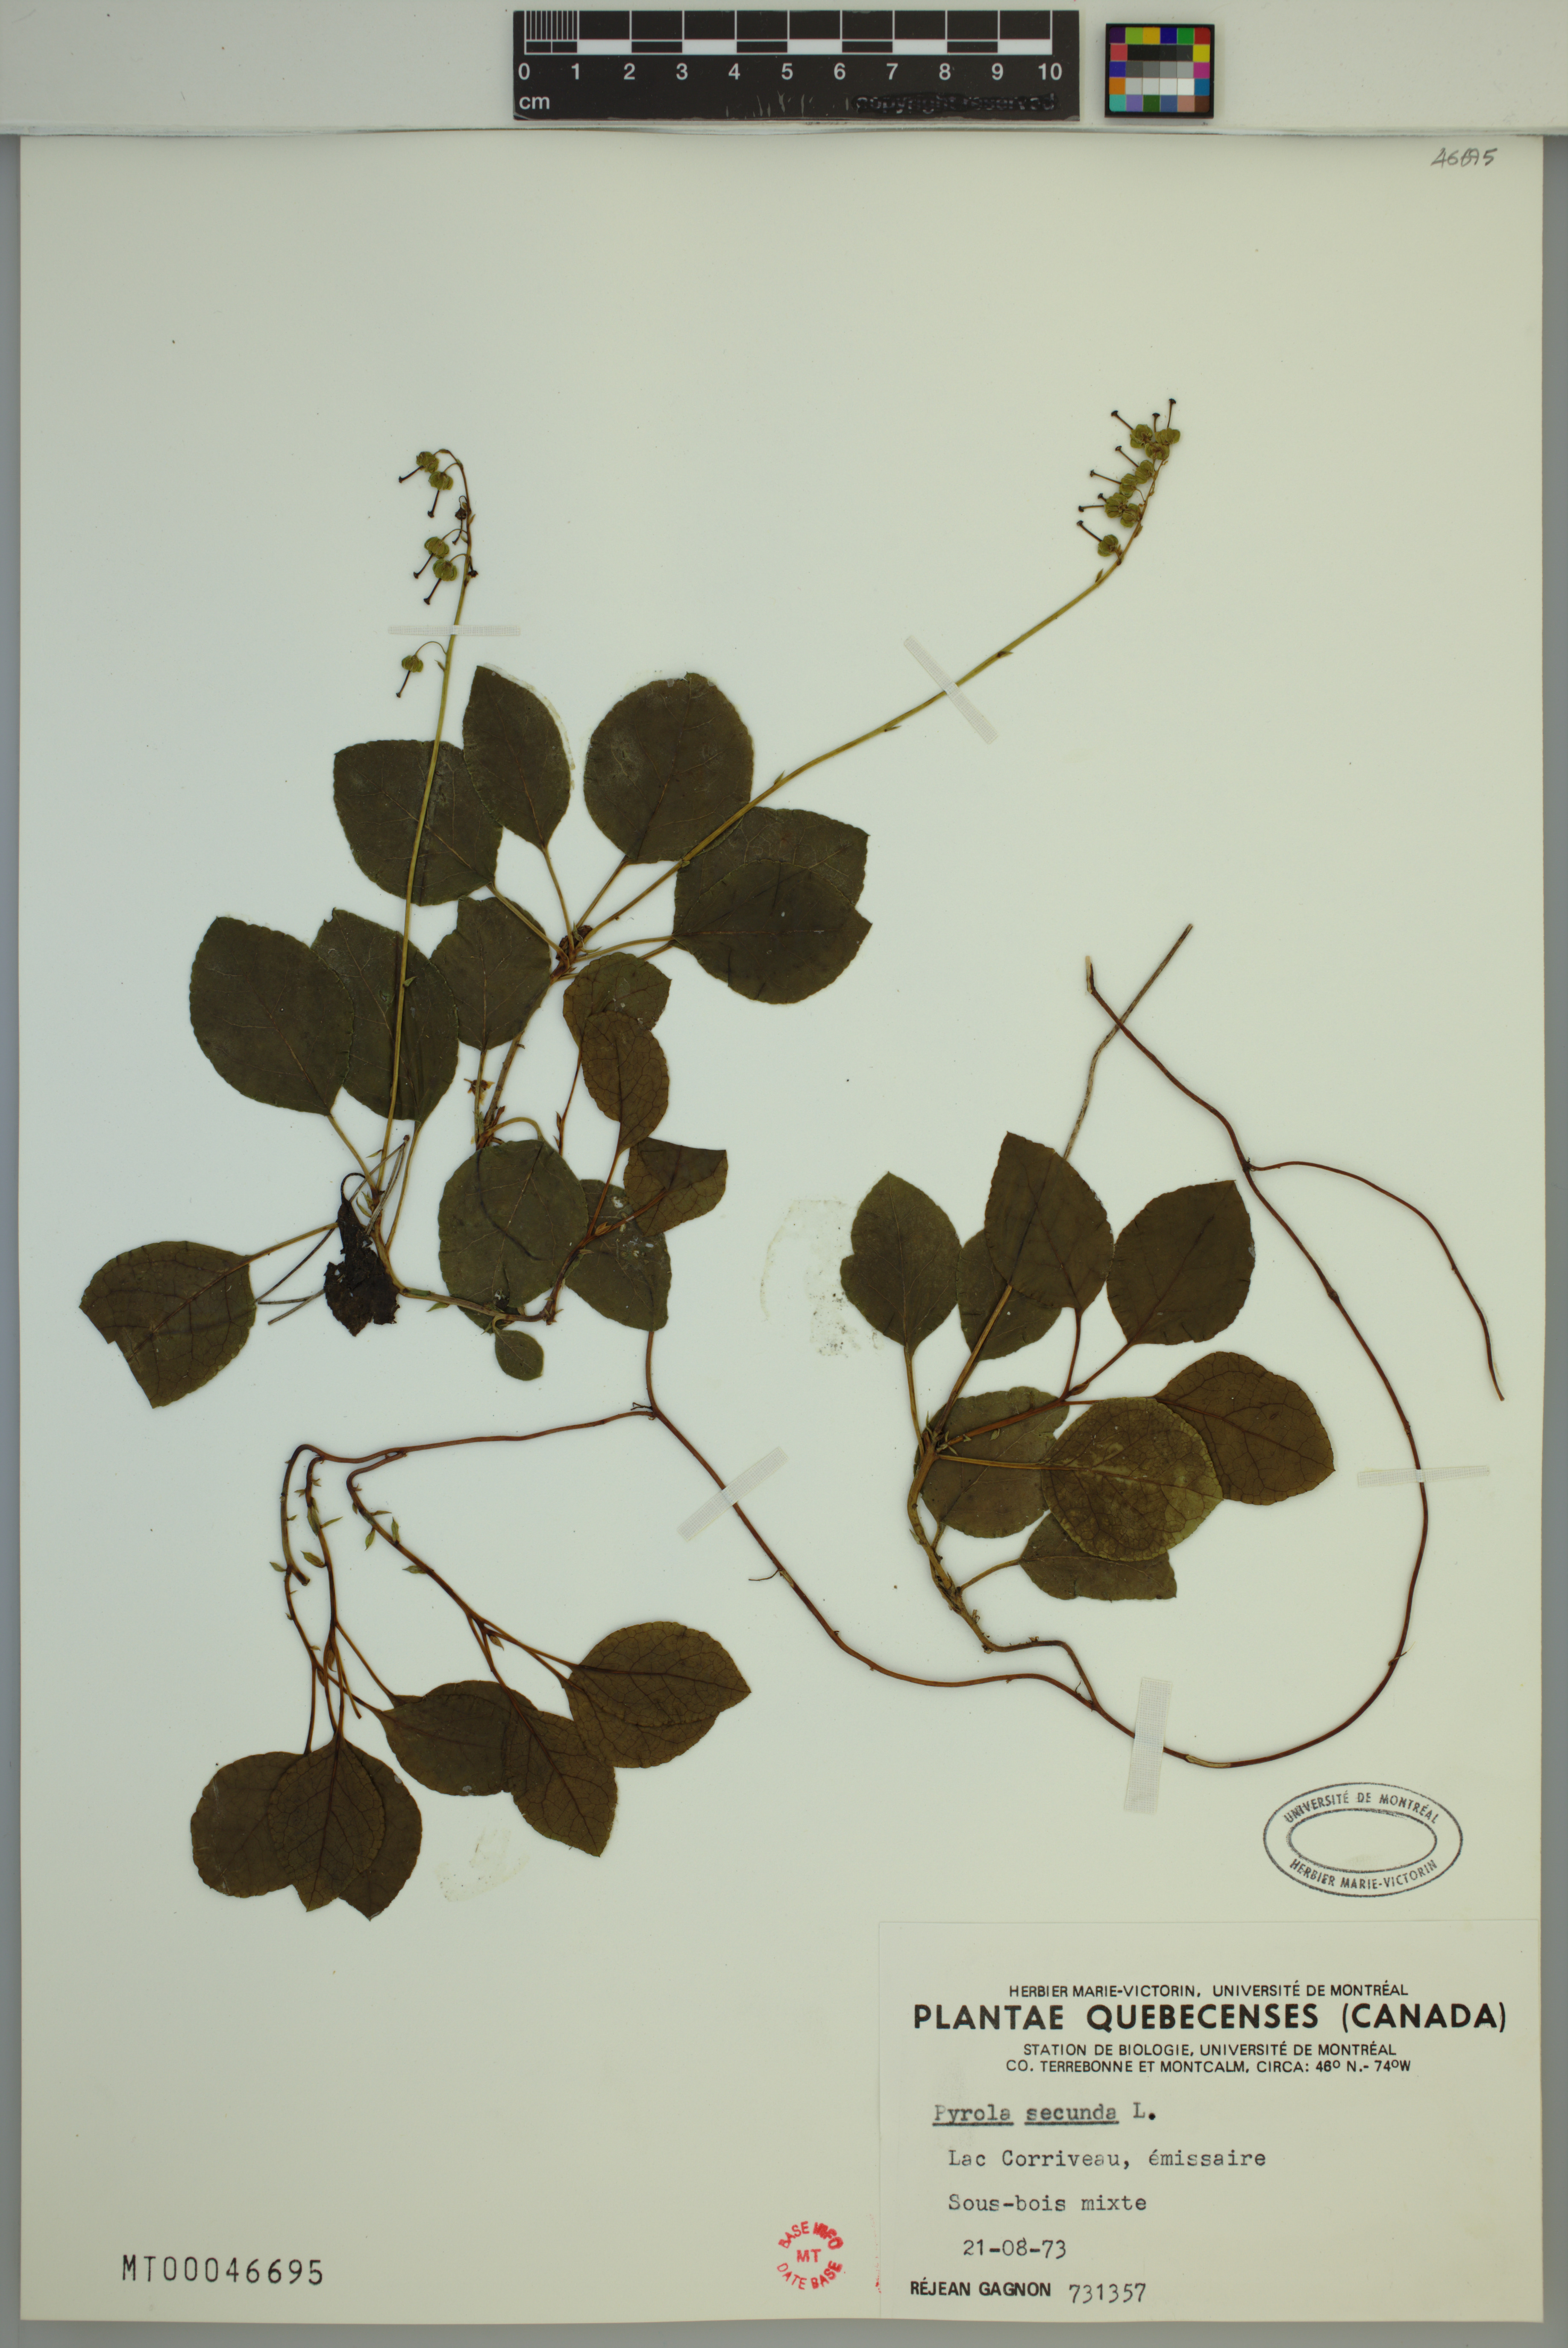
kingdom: Plantae
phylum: Tracheophyta
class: Magnoliopsida
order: Ericales
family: Ericaceae
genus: Orthilia
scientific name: Orthilia secunda
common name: One-sided orthilia
